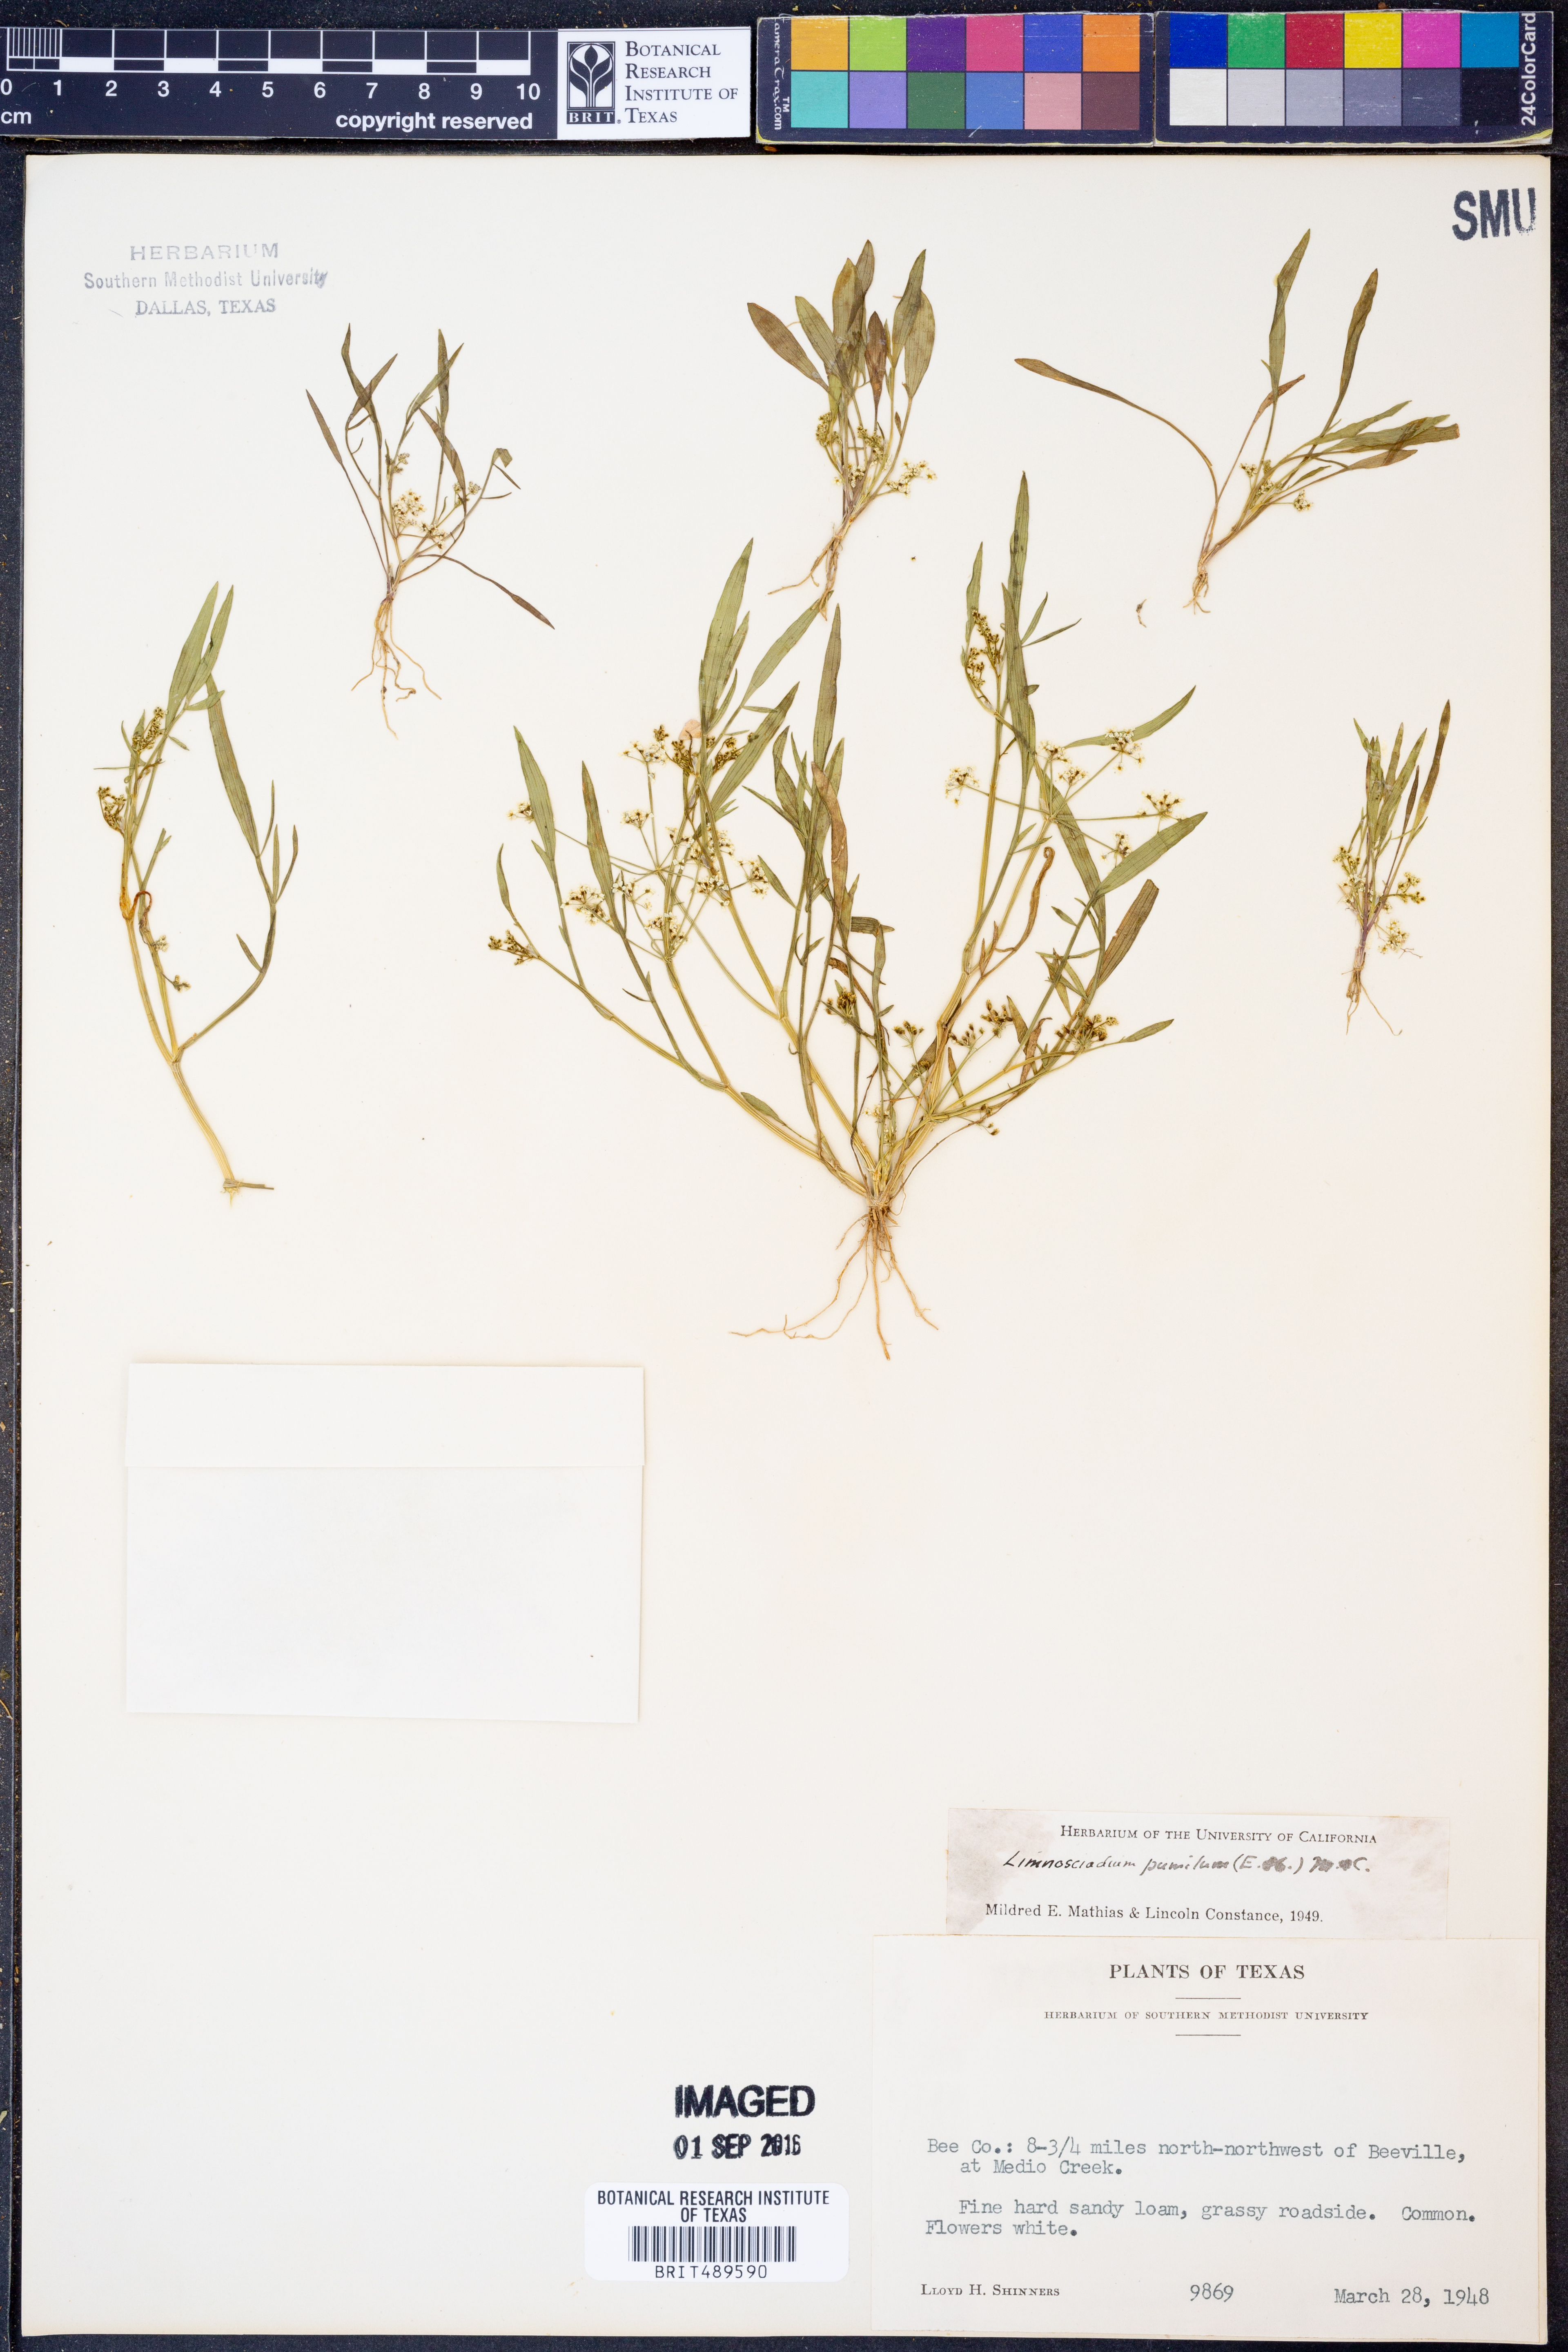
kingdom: Plantae
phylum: Tracheophyta
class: Magnoliopsida
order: Apiales
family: Apiaceae
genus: Limnosciadium
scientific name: Limnosciadium pinnatum
